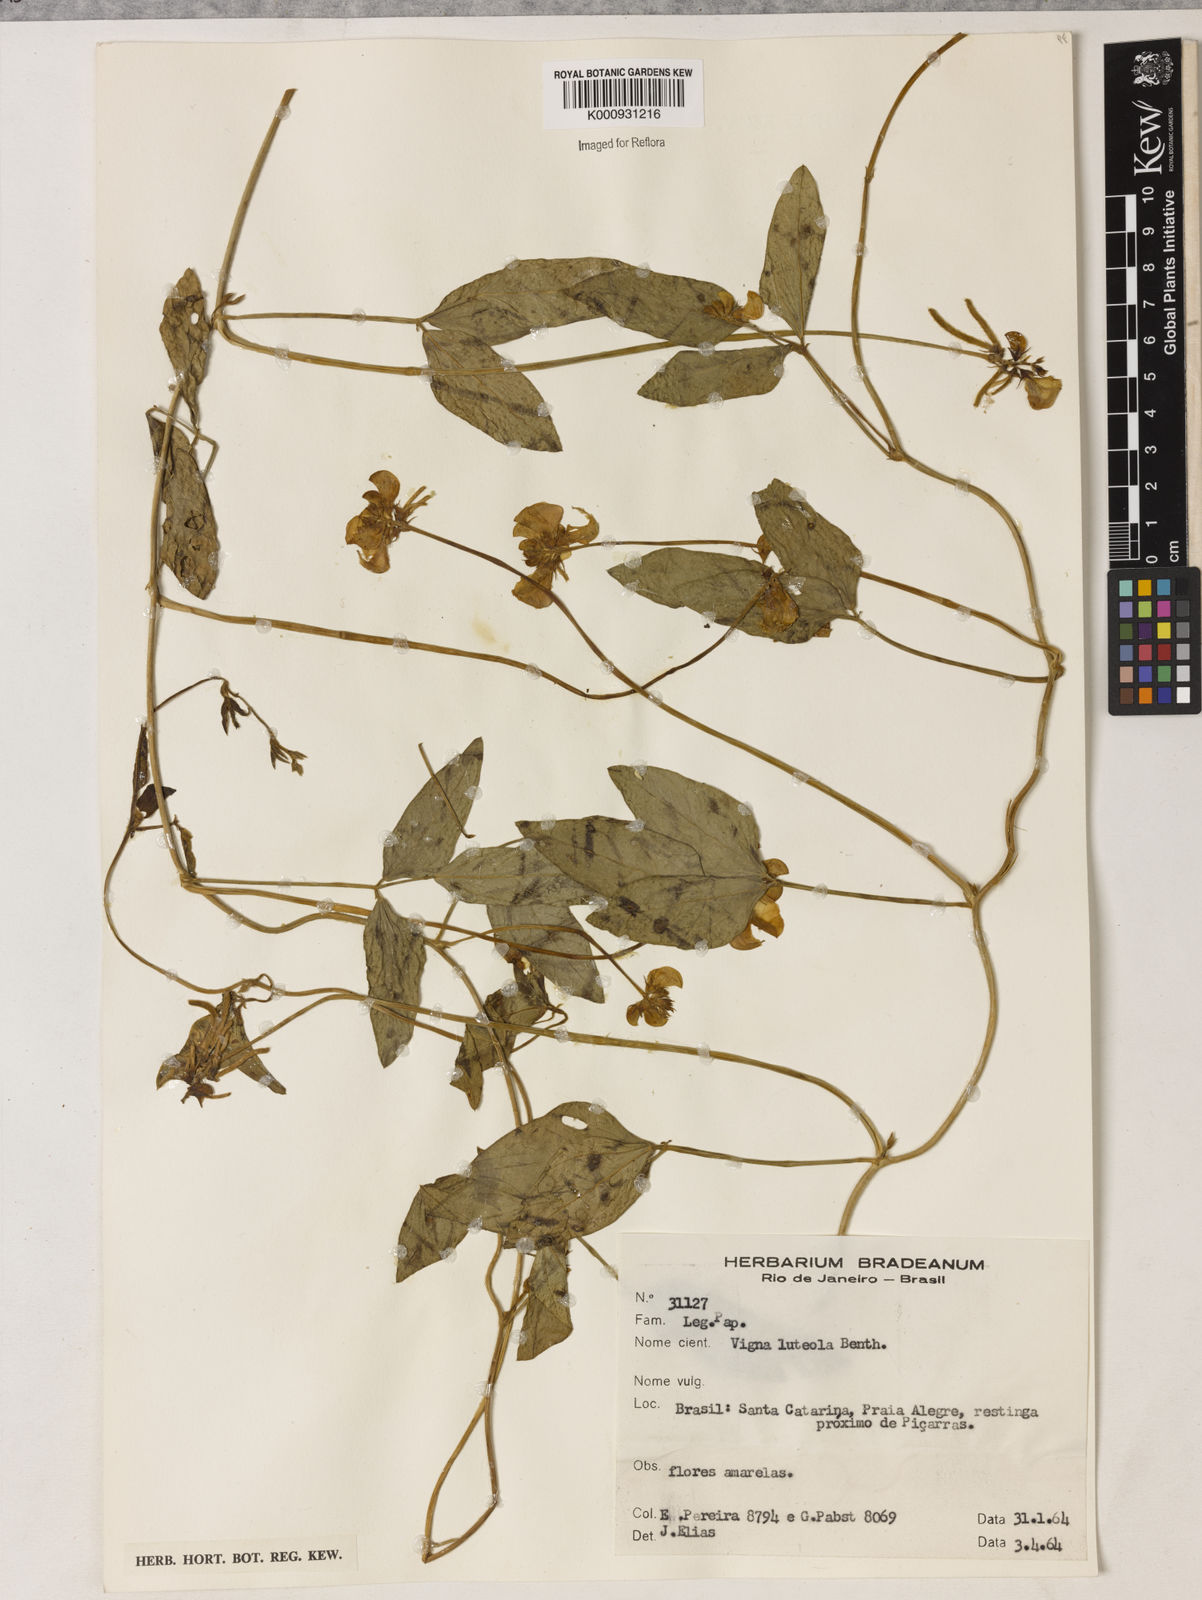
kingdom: Plantae
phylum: Tracheophyta
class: Magnoliopsida
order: Fabales
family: Fabaceae
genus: Vigna
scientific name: Vigna luteola
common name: Hairypod cowpea
